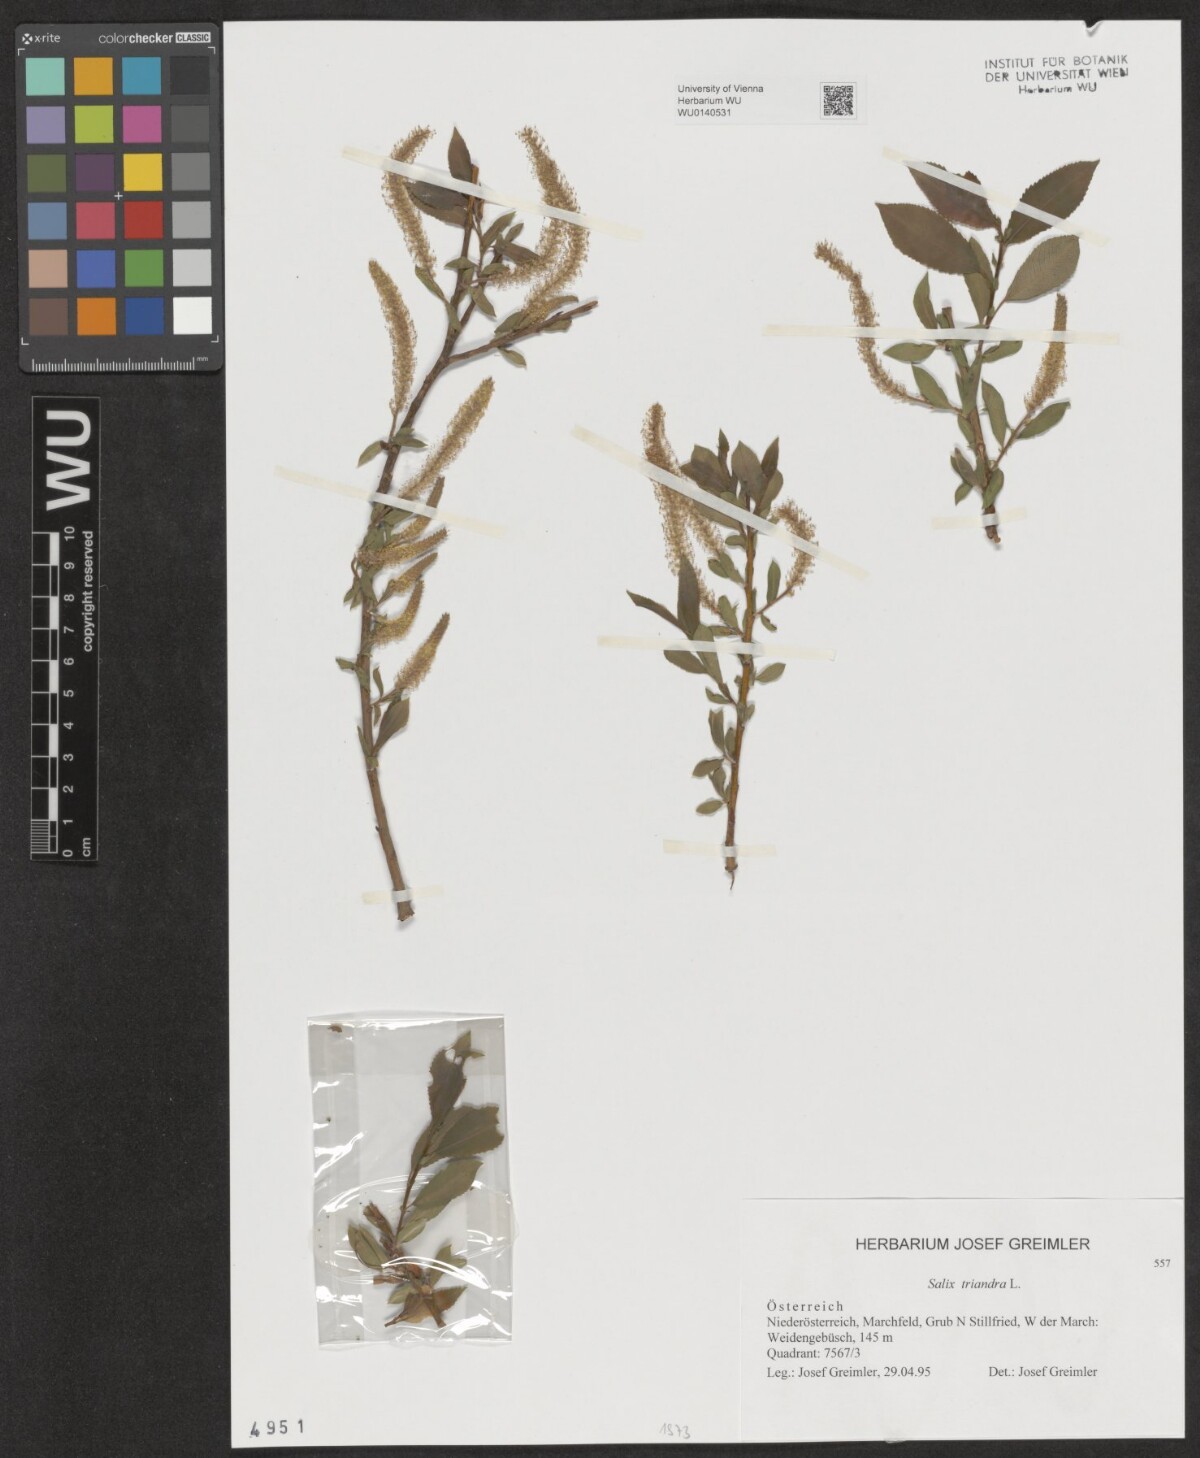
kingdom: Plantae
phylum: Tracheophyta
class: Magnoliopsida
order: Malpighiales
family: Salicaceae
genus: Salix
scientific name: Salix triandra
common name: Almond willow
